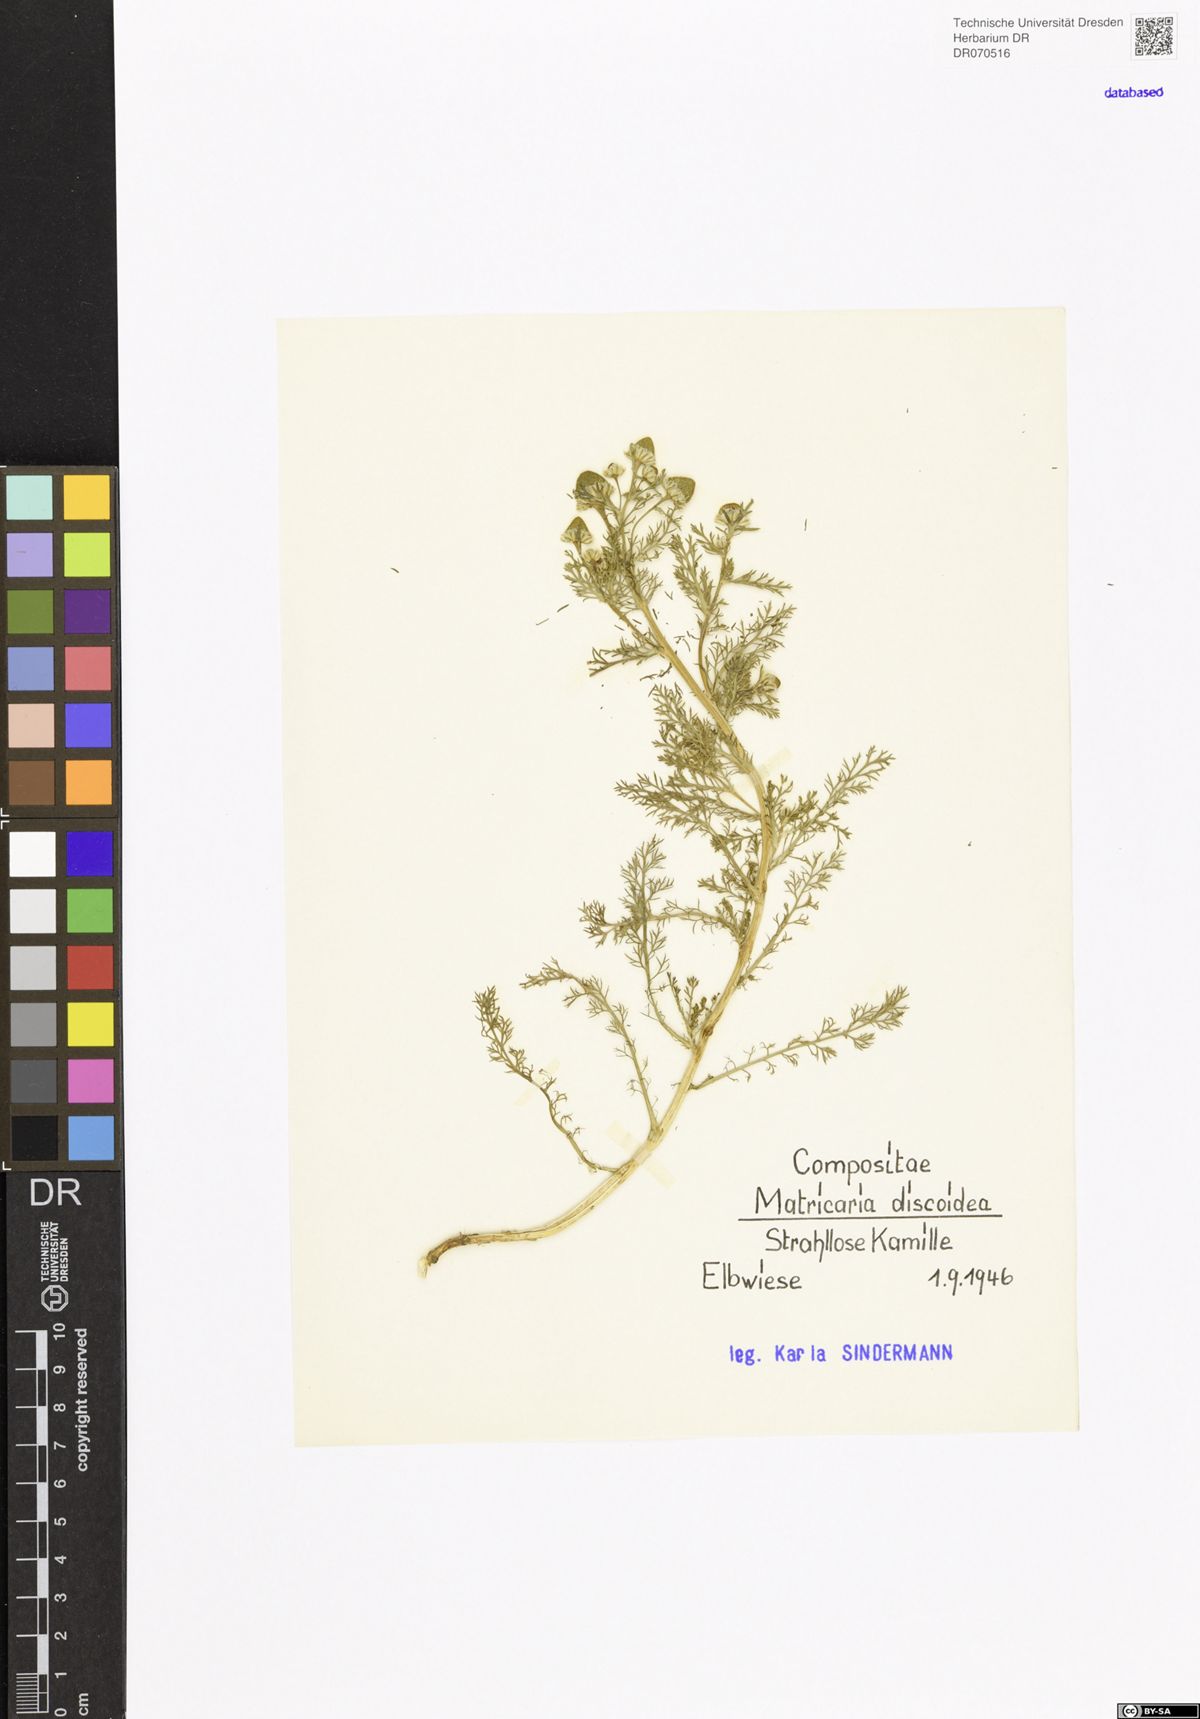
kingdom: Plantae
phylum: Tracheophyta
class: Magnoliopsida
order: Asterales
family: Asteraceae
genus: Matricaria
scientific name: Matricaria discoidea
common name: Disc mayweed
